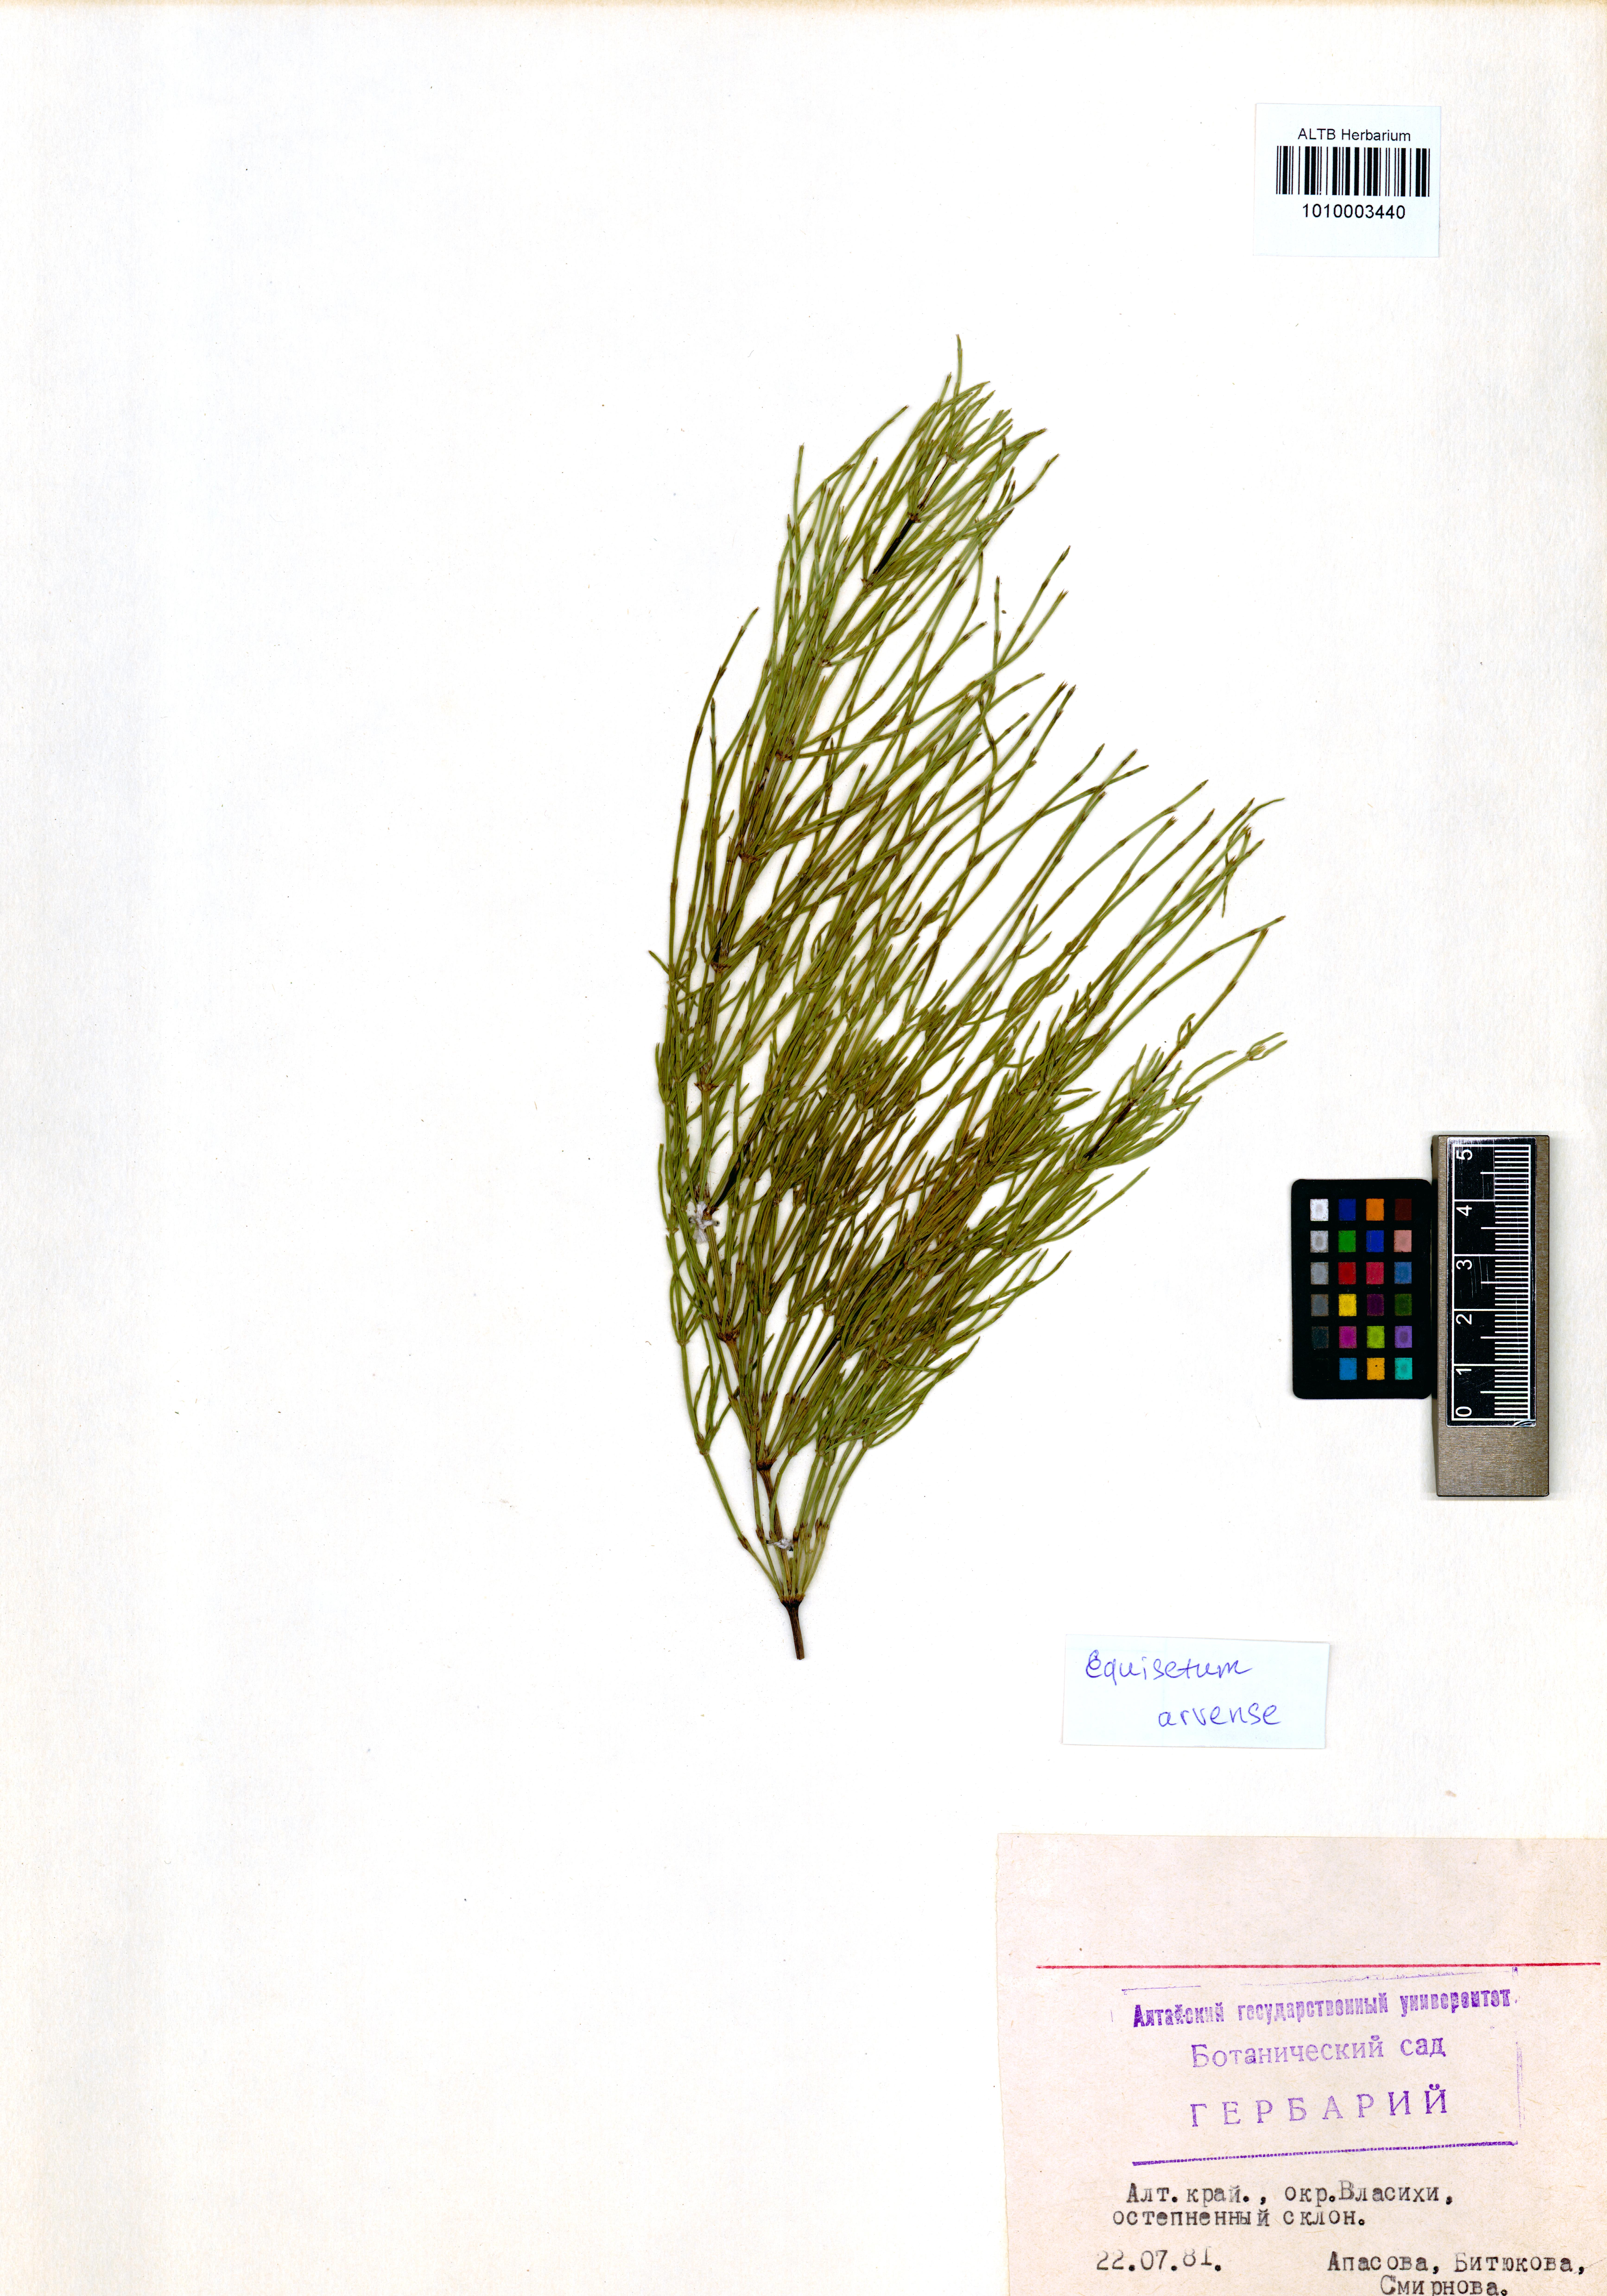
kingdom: Plantae
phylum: Tracheophyta
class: Polypodiopsida
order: Equisetales
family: Equisetaceae
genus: Equisetum
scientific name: Equisetum arvense
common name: Field horsetail
